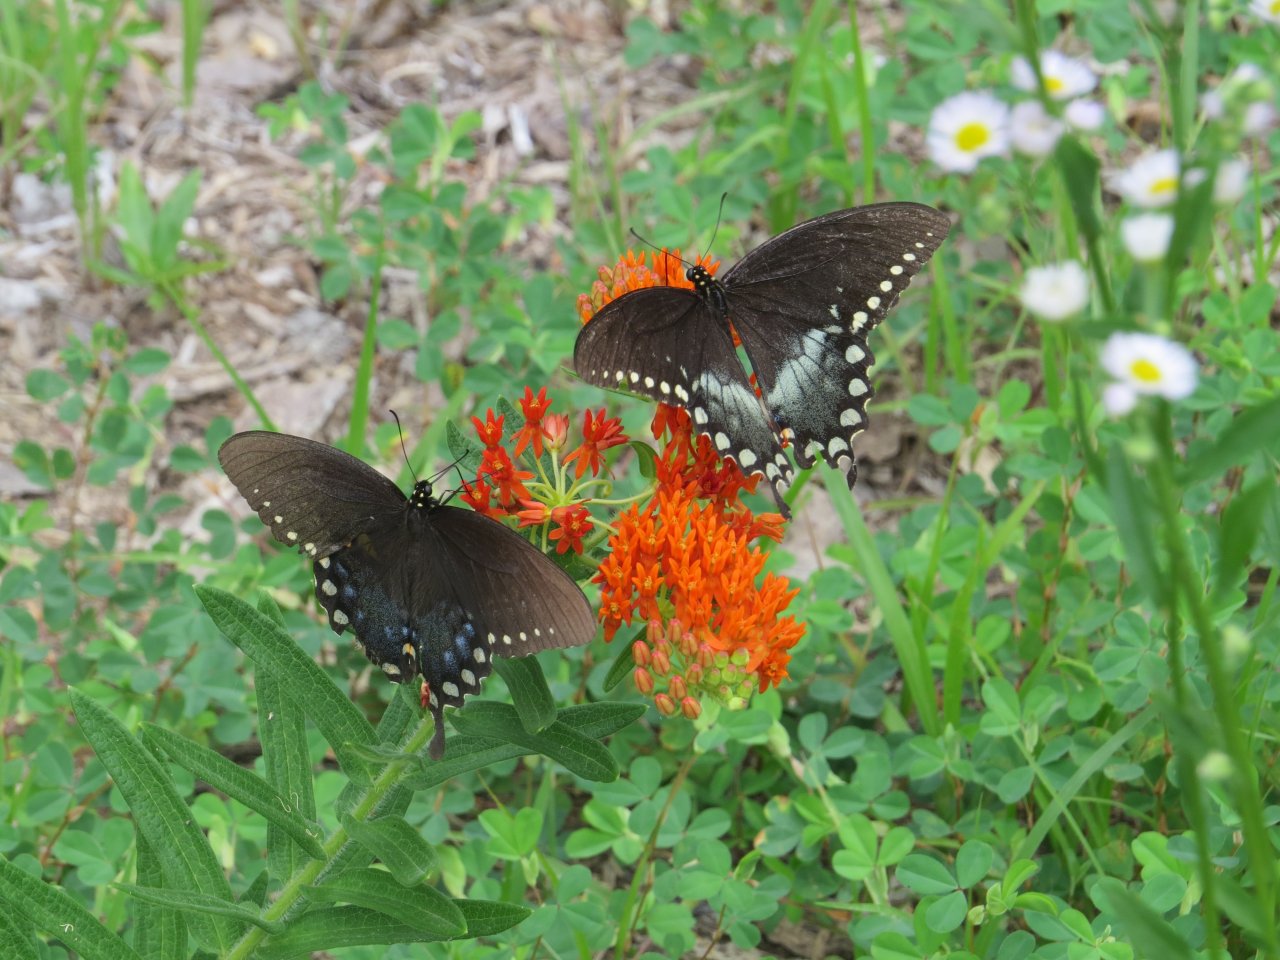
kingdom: Animalia
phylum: Arthropoda
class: Insecta
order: Lepidoptera
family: Papilionidae
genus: Pterourus
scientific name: Pterourus troilus
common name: Spicebush Swallowtail
